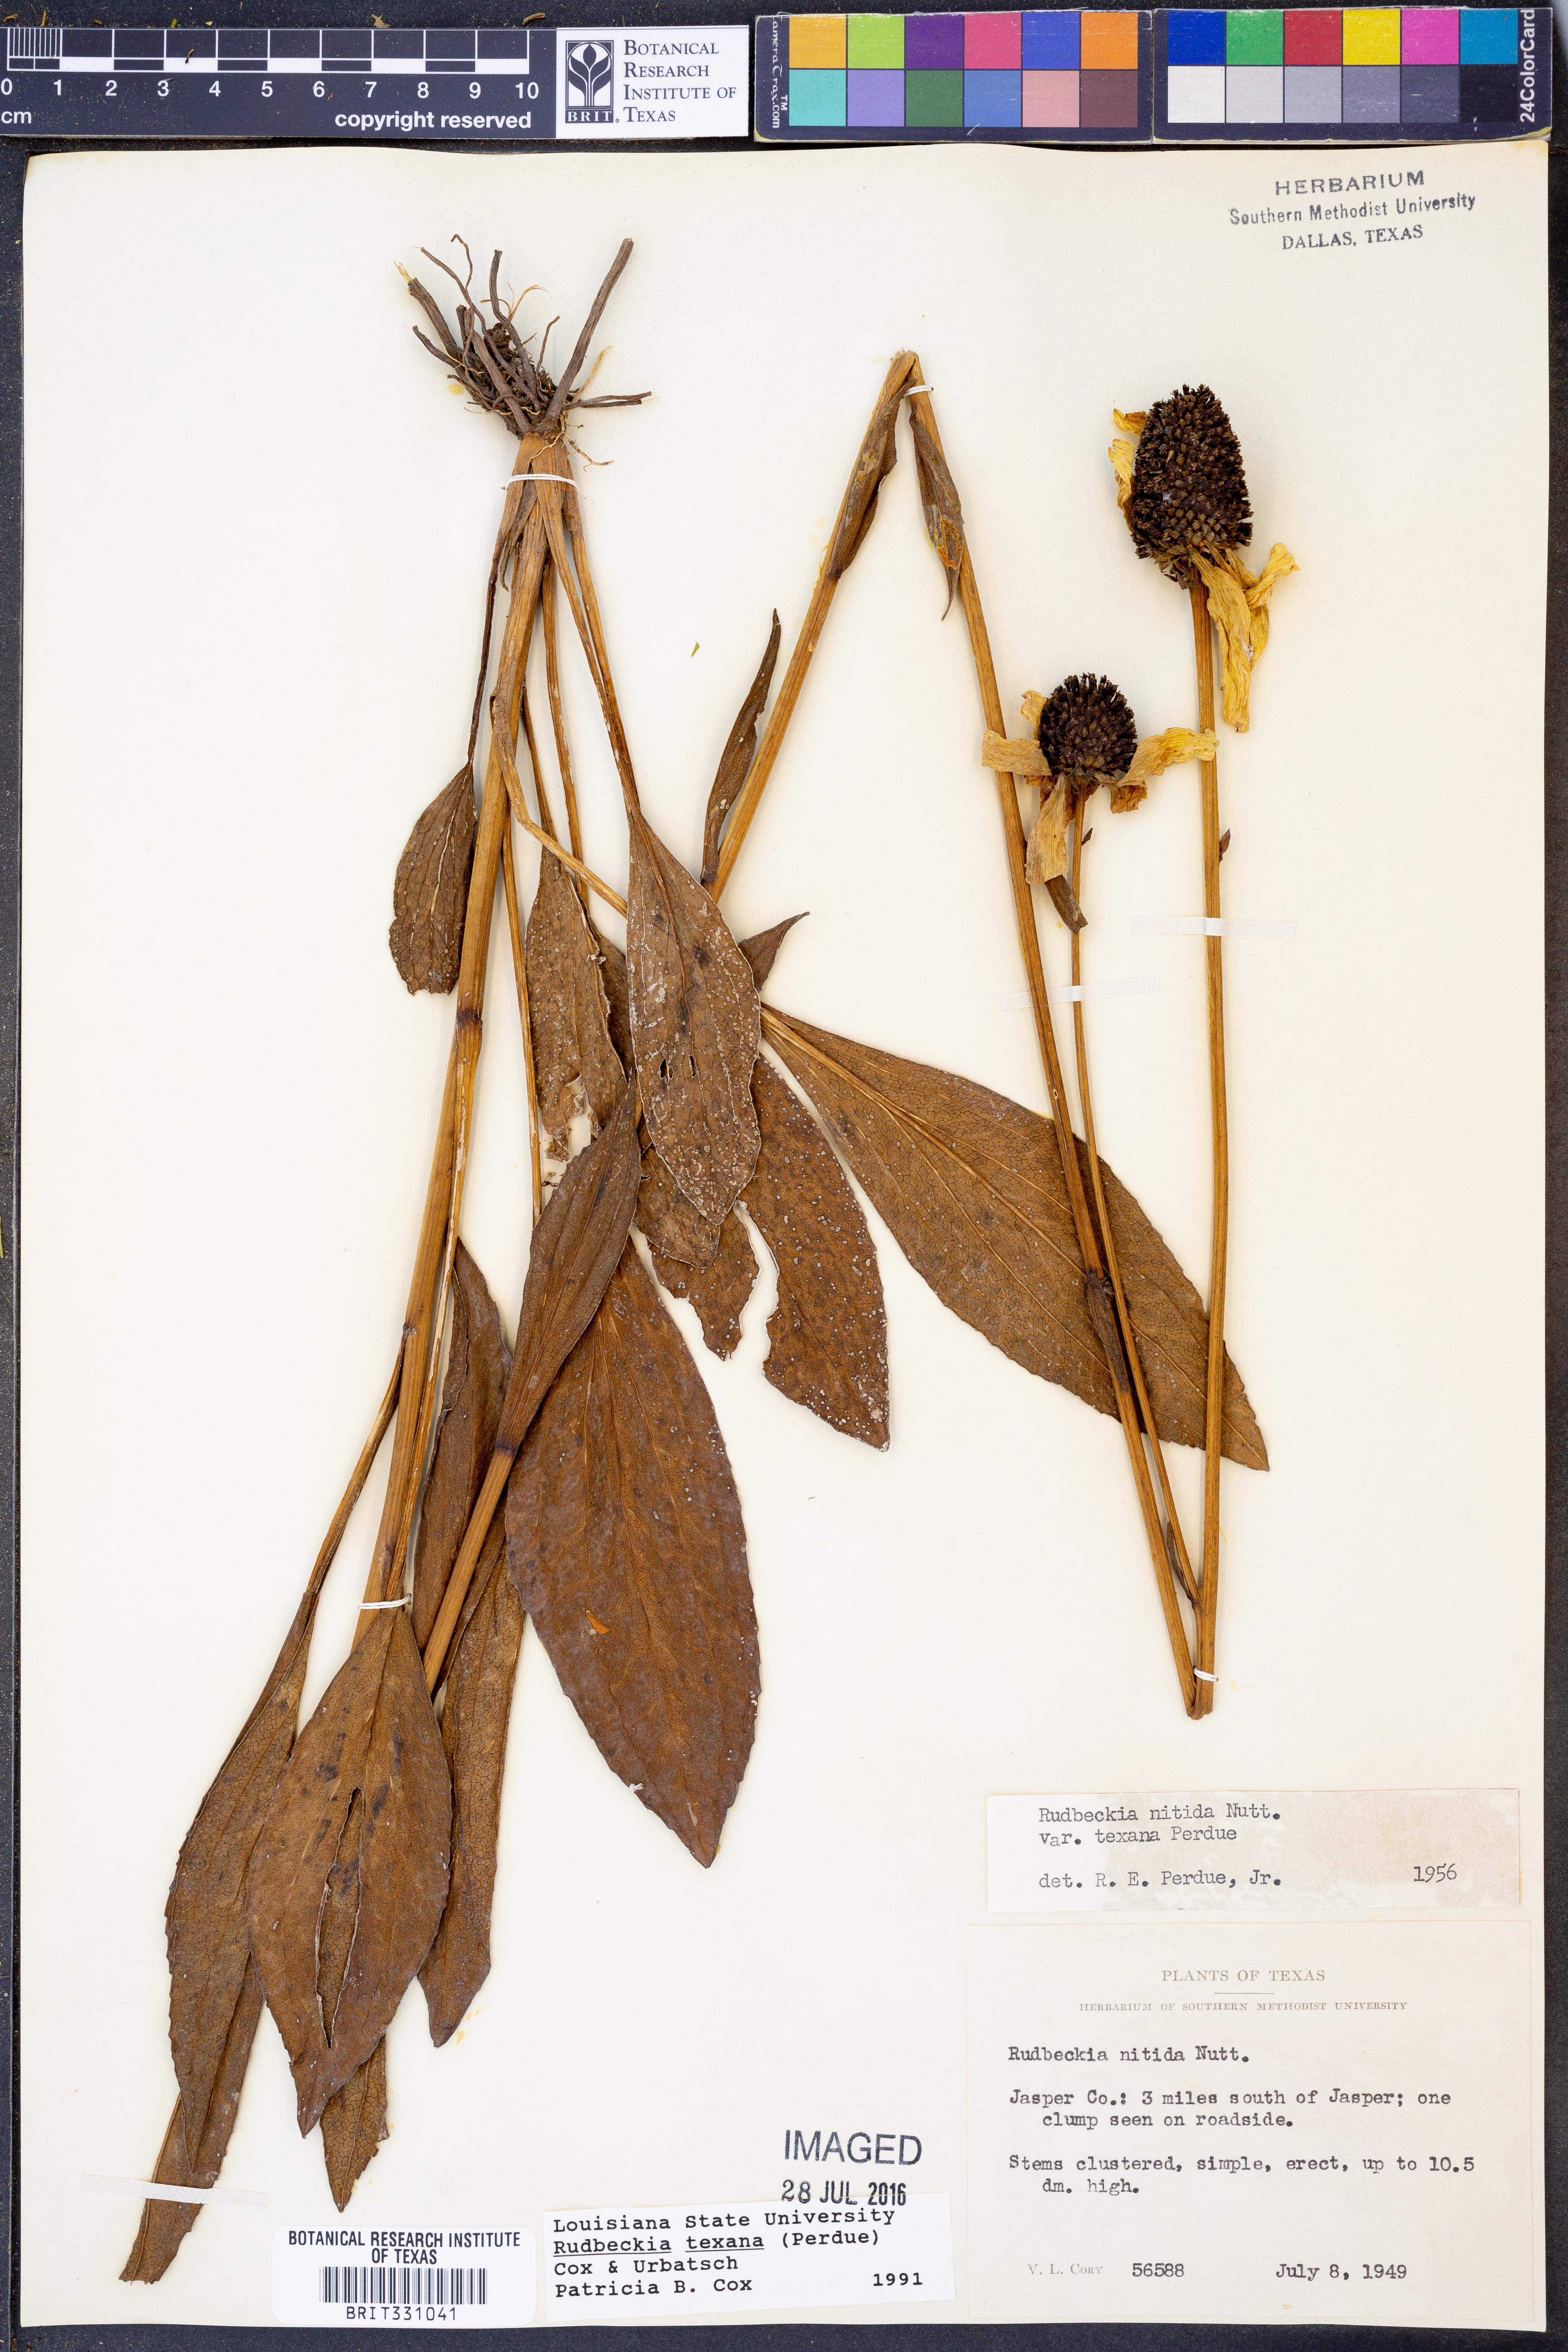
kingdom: Plantae
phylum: Tracheophyta
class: Magnoliopsida
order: Asterales
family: Asteraceae
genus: Rudbeckia
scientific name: Rudbeckia texana
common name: Texas coneflower
